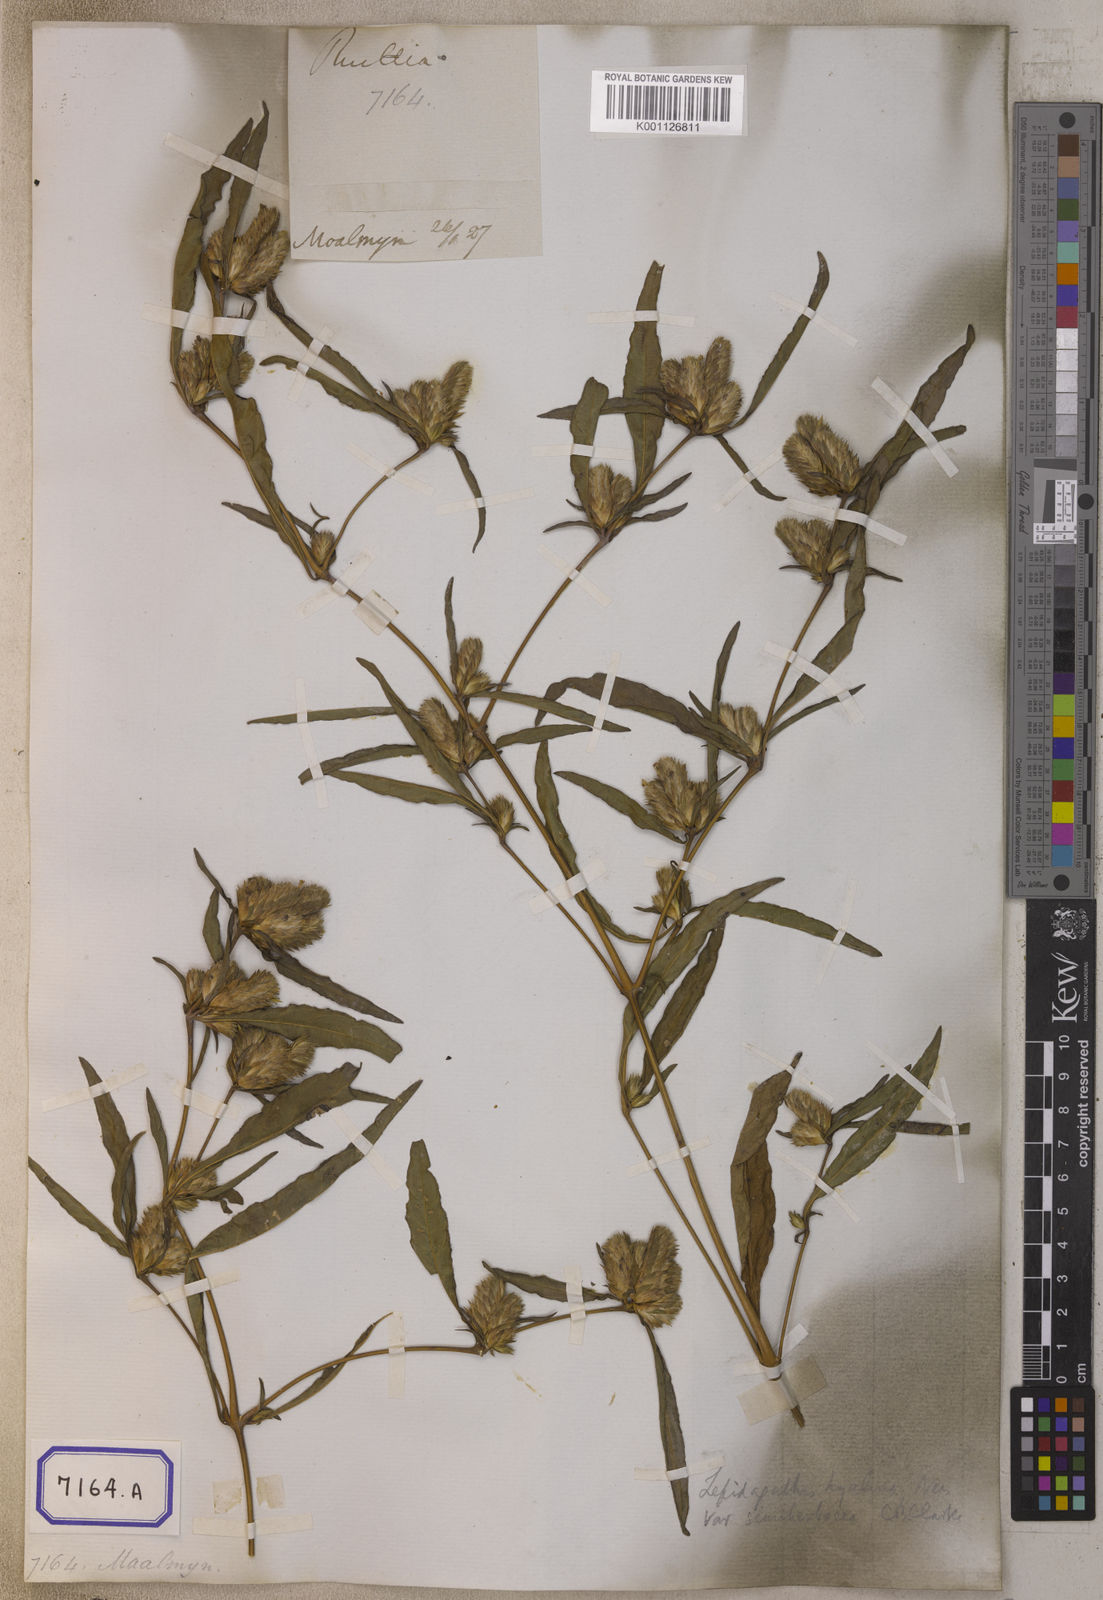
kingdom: Plantae
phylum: Tracheophyta
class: Magnoliopsida
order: Lamiales
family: Acanthaceae
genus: Lepidagathis
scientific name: Lepidagathis incurva
